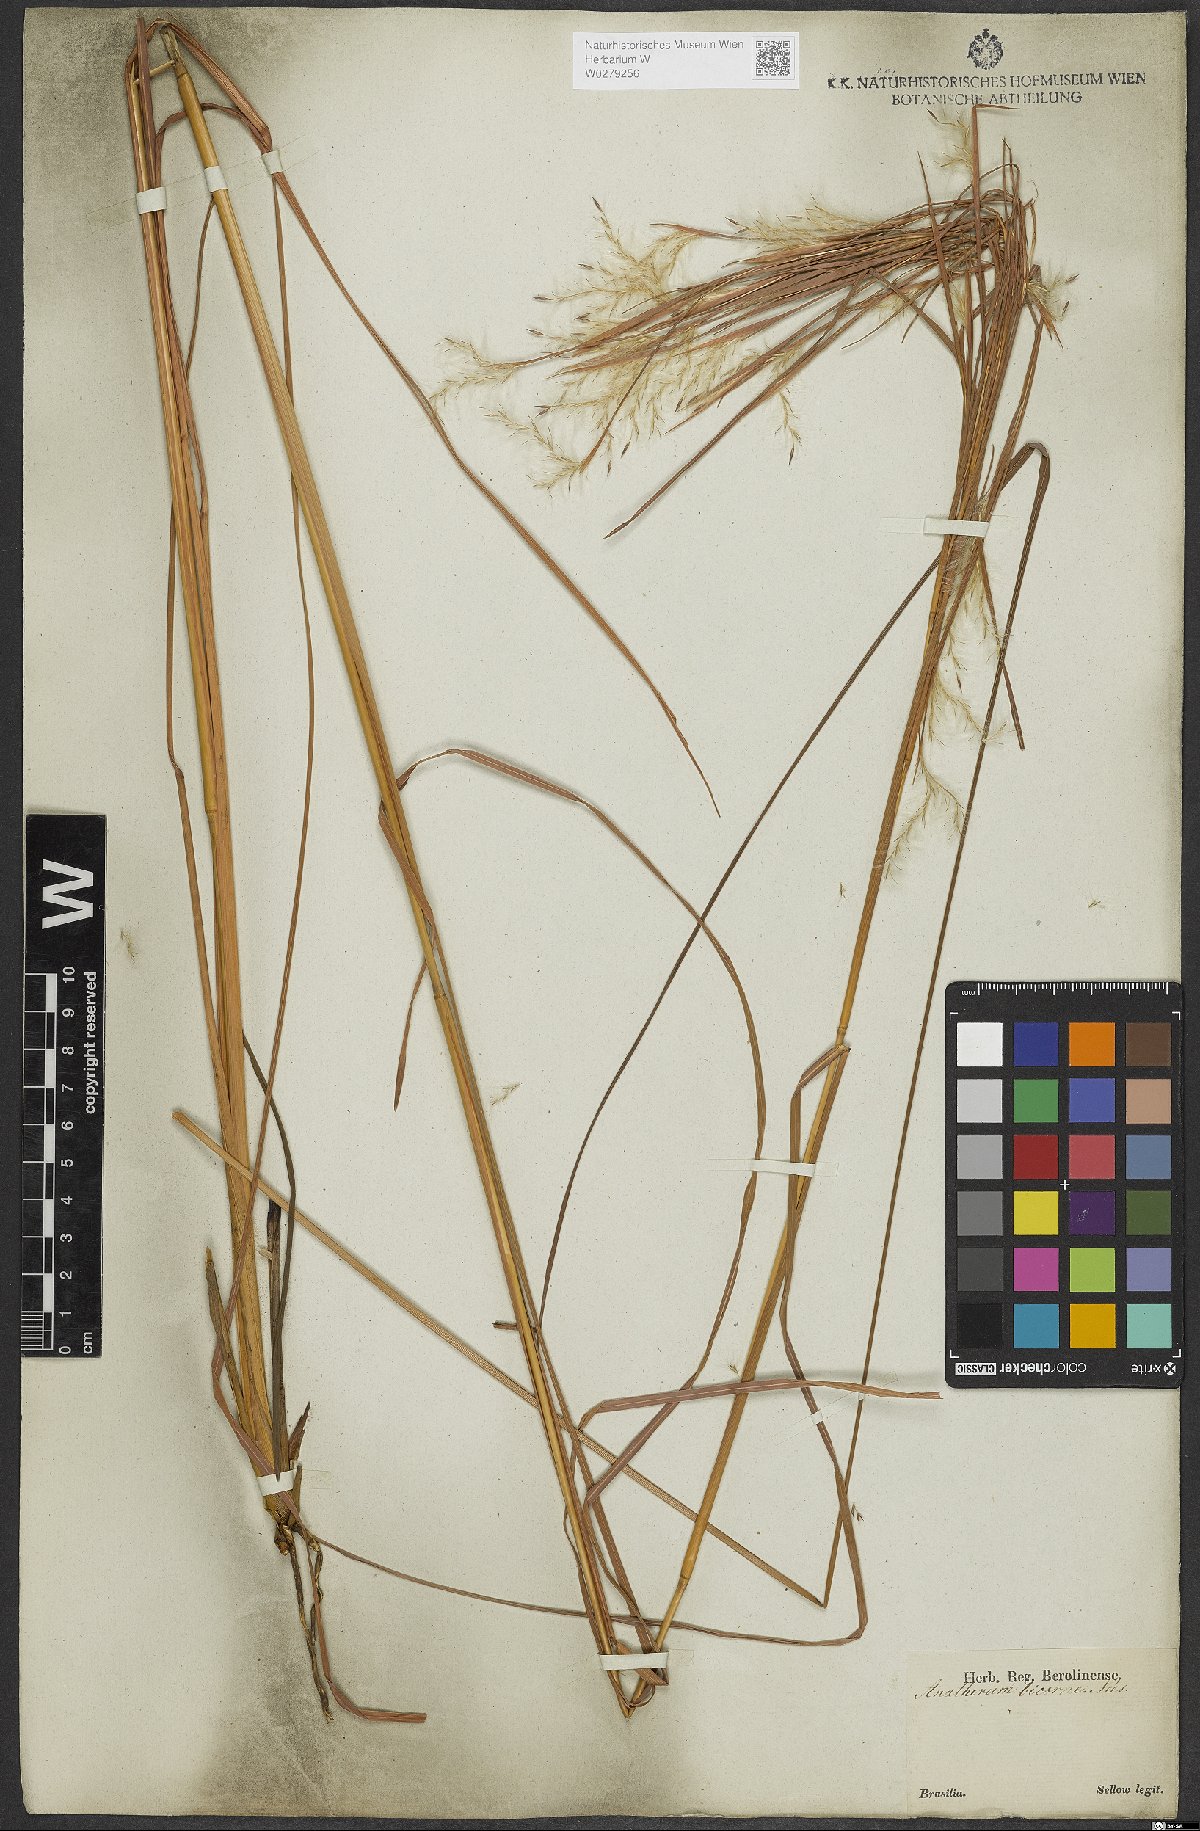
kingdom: Plantae
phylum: Tracheophyta
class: Liliopsida
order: Poales
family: Poaceae
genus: Andropogon
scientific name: Andropogon bicornis
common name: West indian foxtail grass
